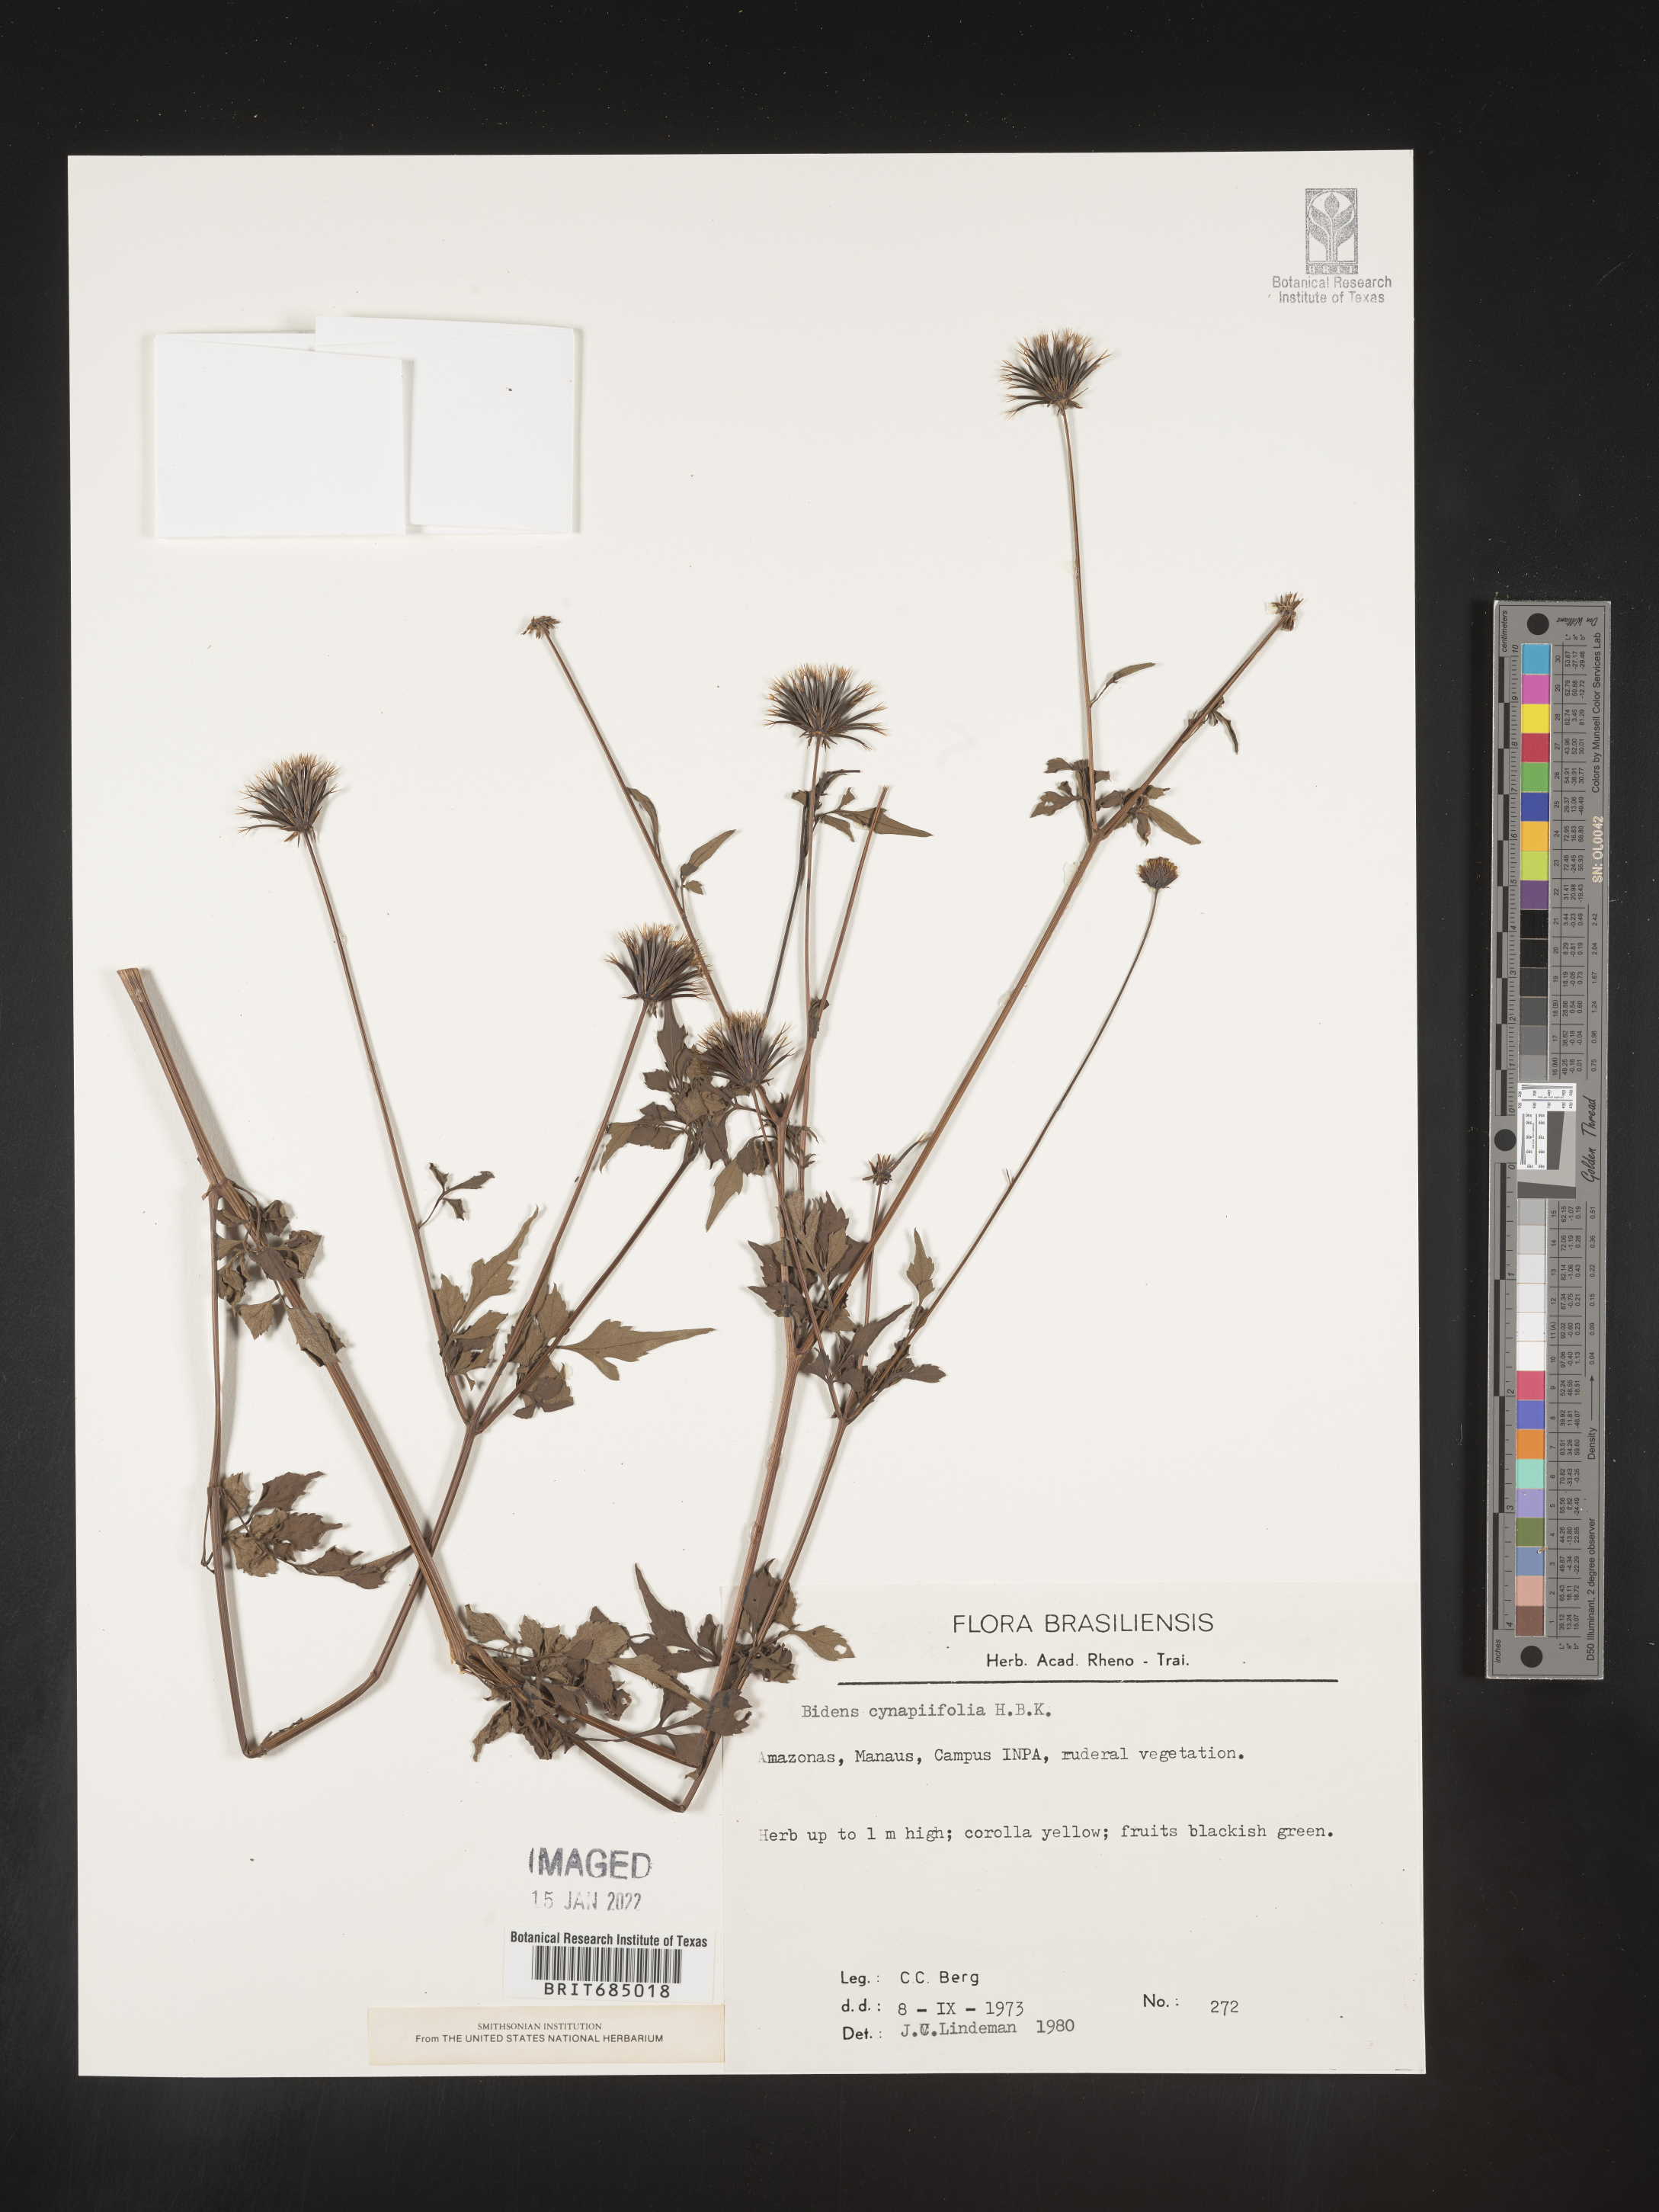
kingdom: Plantae
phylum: Tracheophyta
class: Magnoliopsida
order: Asterales
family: Asteraceae
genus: Bidens
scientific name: Bidens
